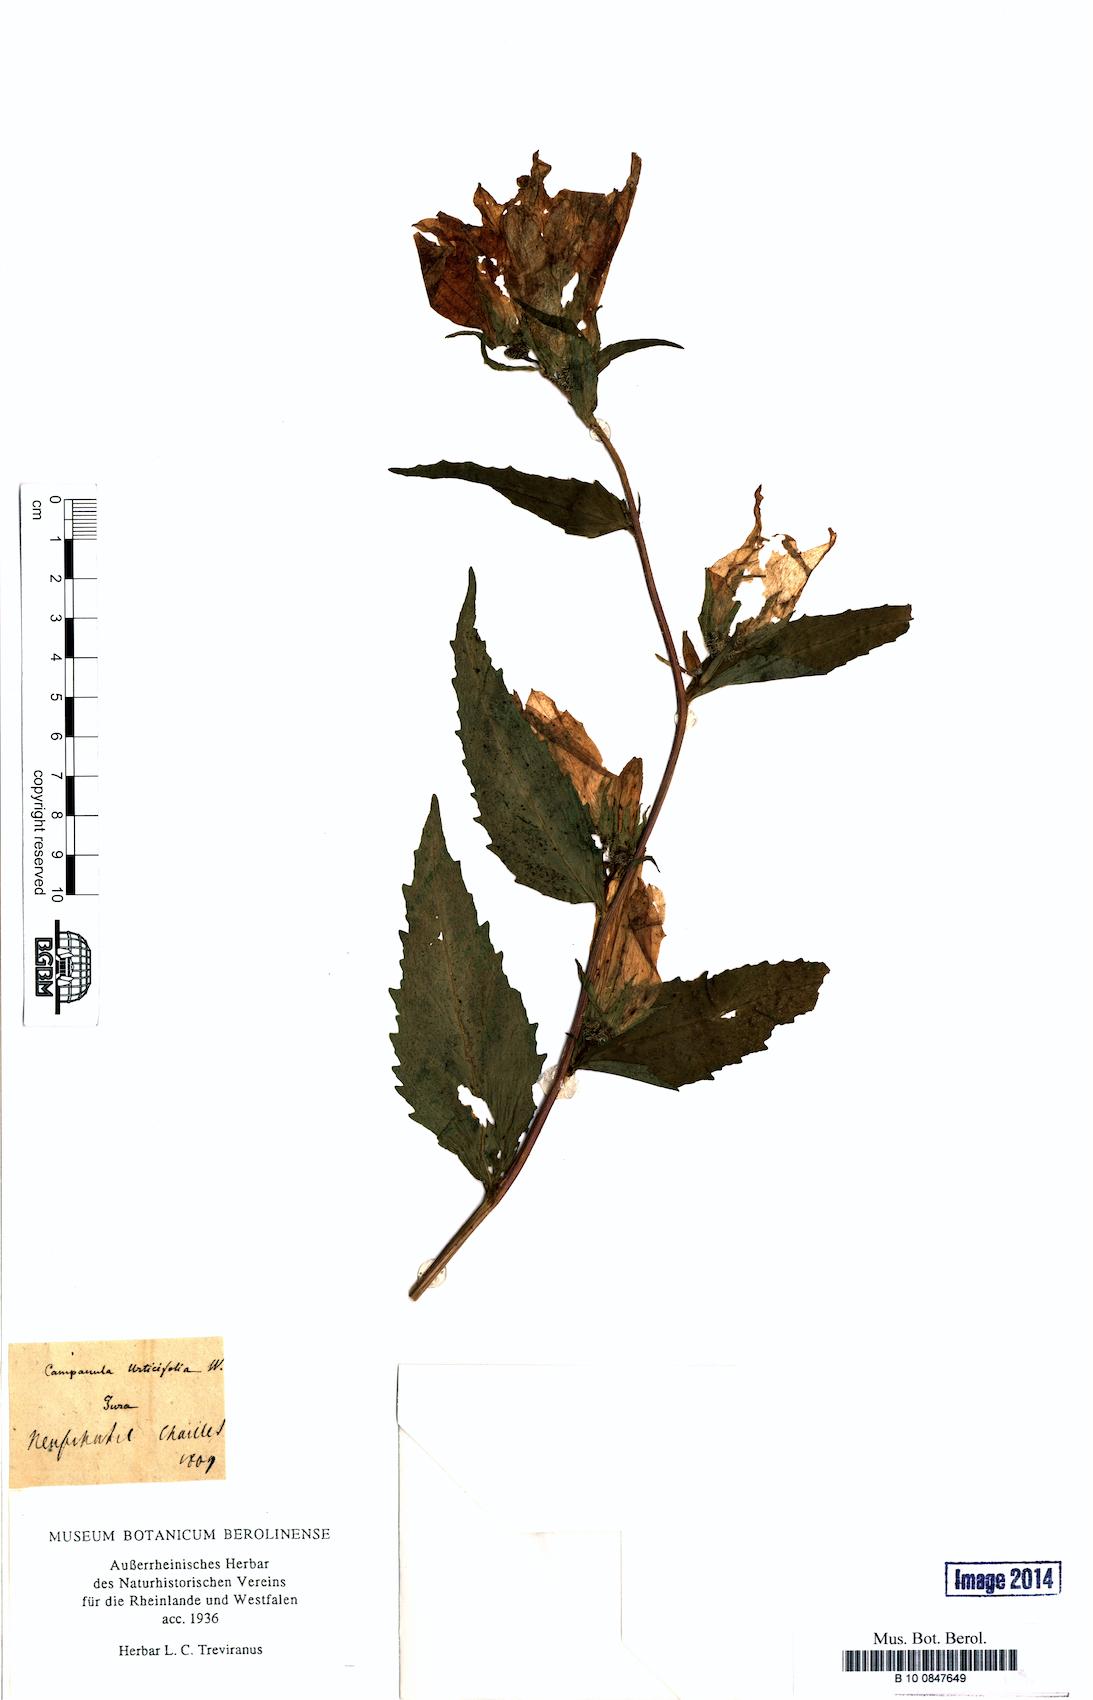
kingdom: Plantae
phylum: Tracheophyta
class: Magnoliopsida
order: Asterales
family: Campanulaceae
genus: Campanula
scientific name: Campanula trachelium
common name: Nettle-leaved bellflower
